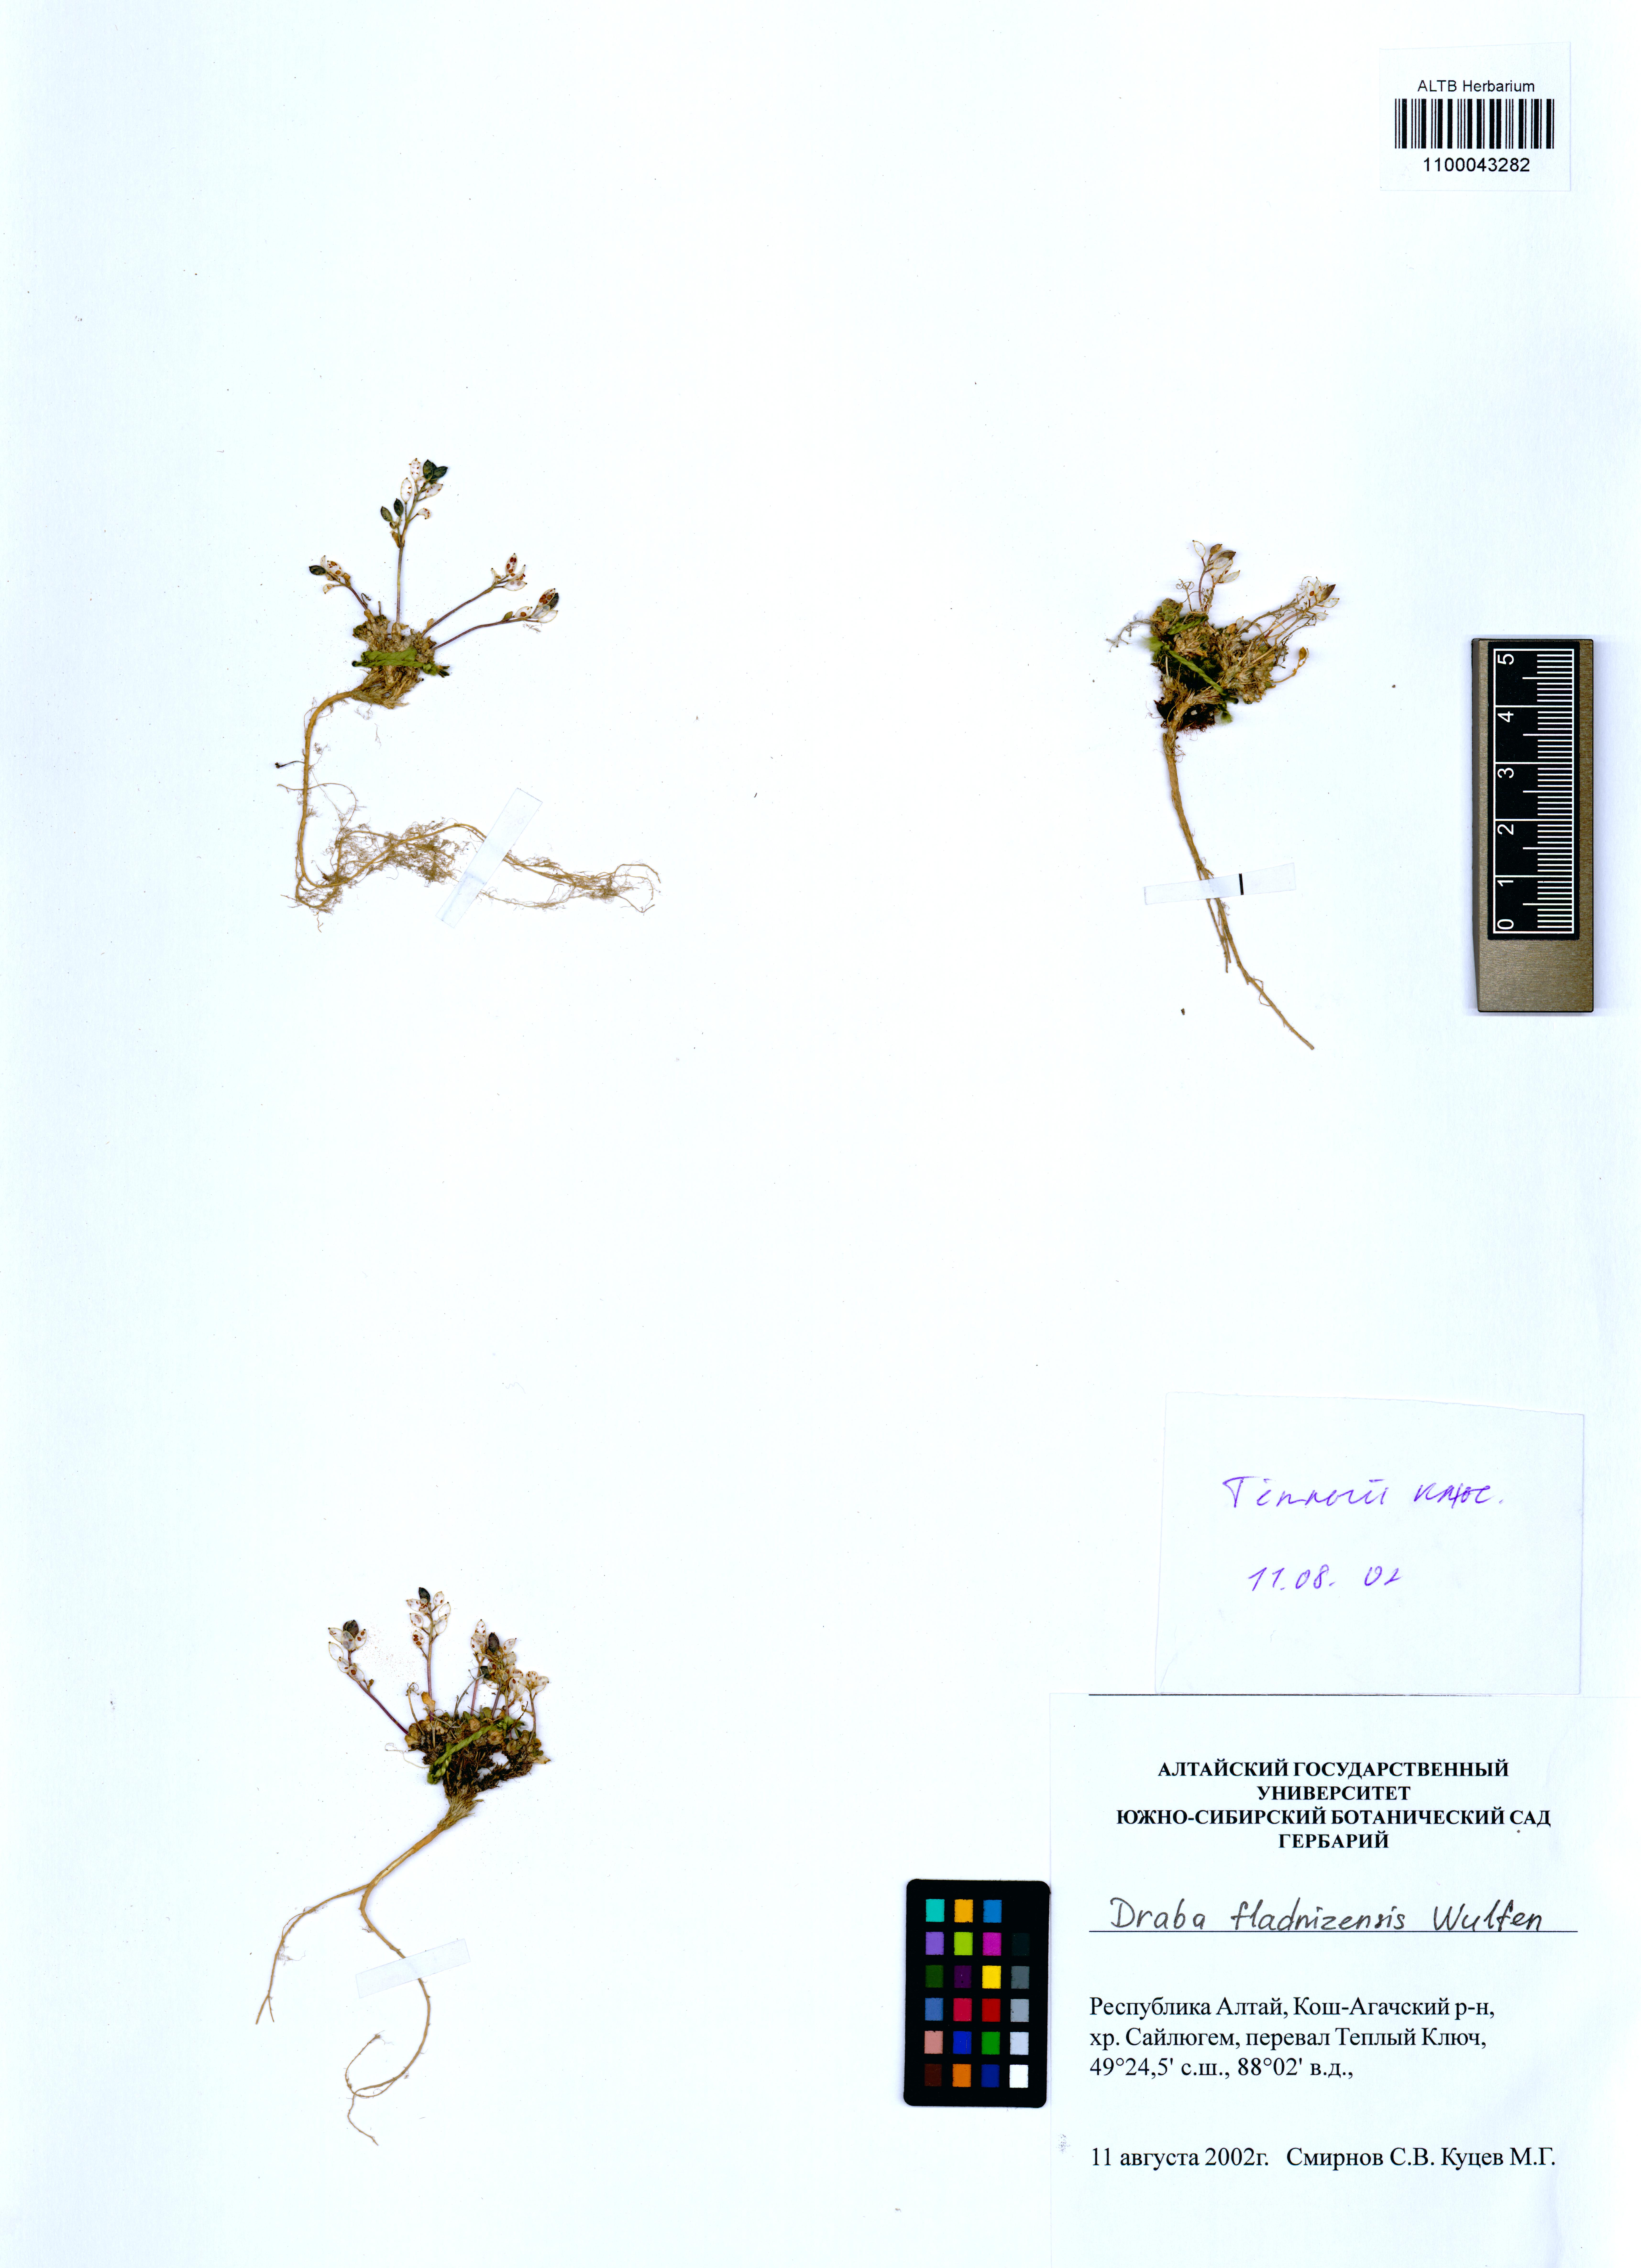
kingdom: Plantae
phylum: Tracheophyta
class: Magnoliopsida
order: Brassicales
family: Brassicaceae
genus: Draba
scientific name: Draba fladnizensis
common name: Austrian draba
